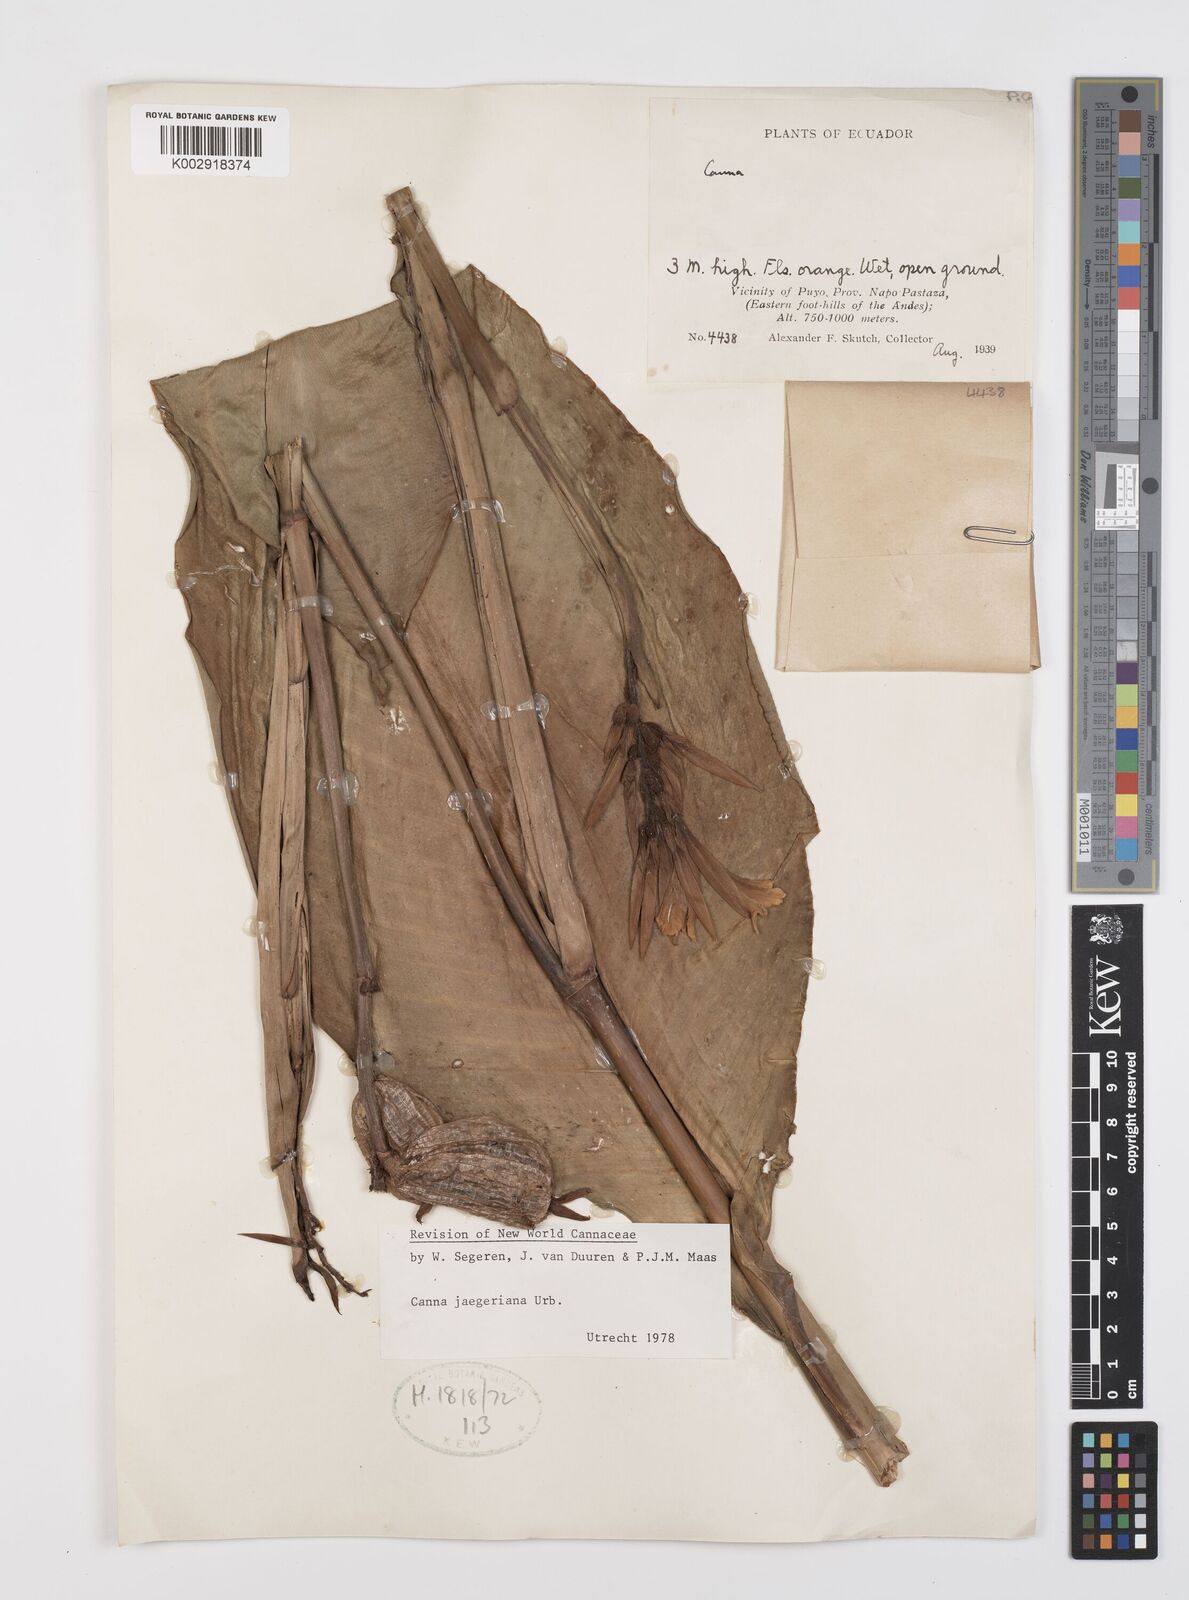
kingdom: Plantae
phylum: Tracheophyta
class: Liliopsida
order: Zingiberales
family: Cannaceae
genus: Canna
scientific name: Canna jaegeriana
